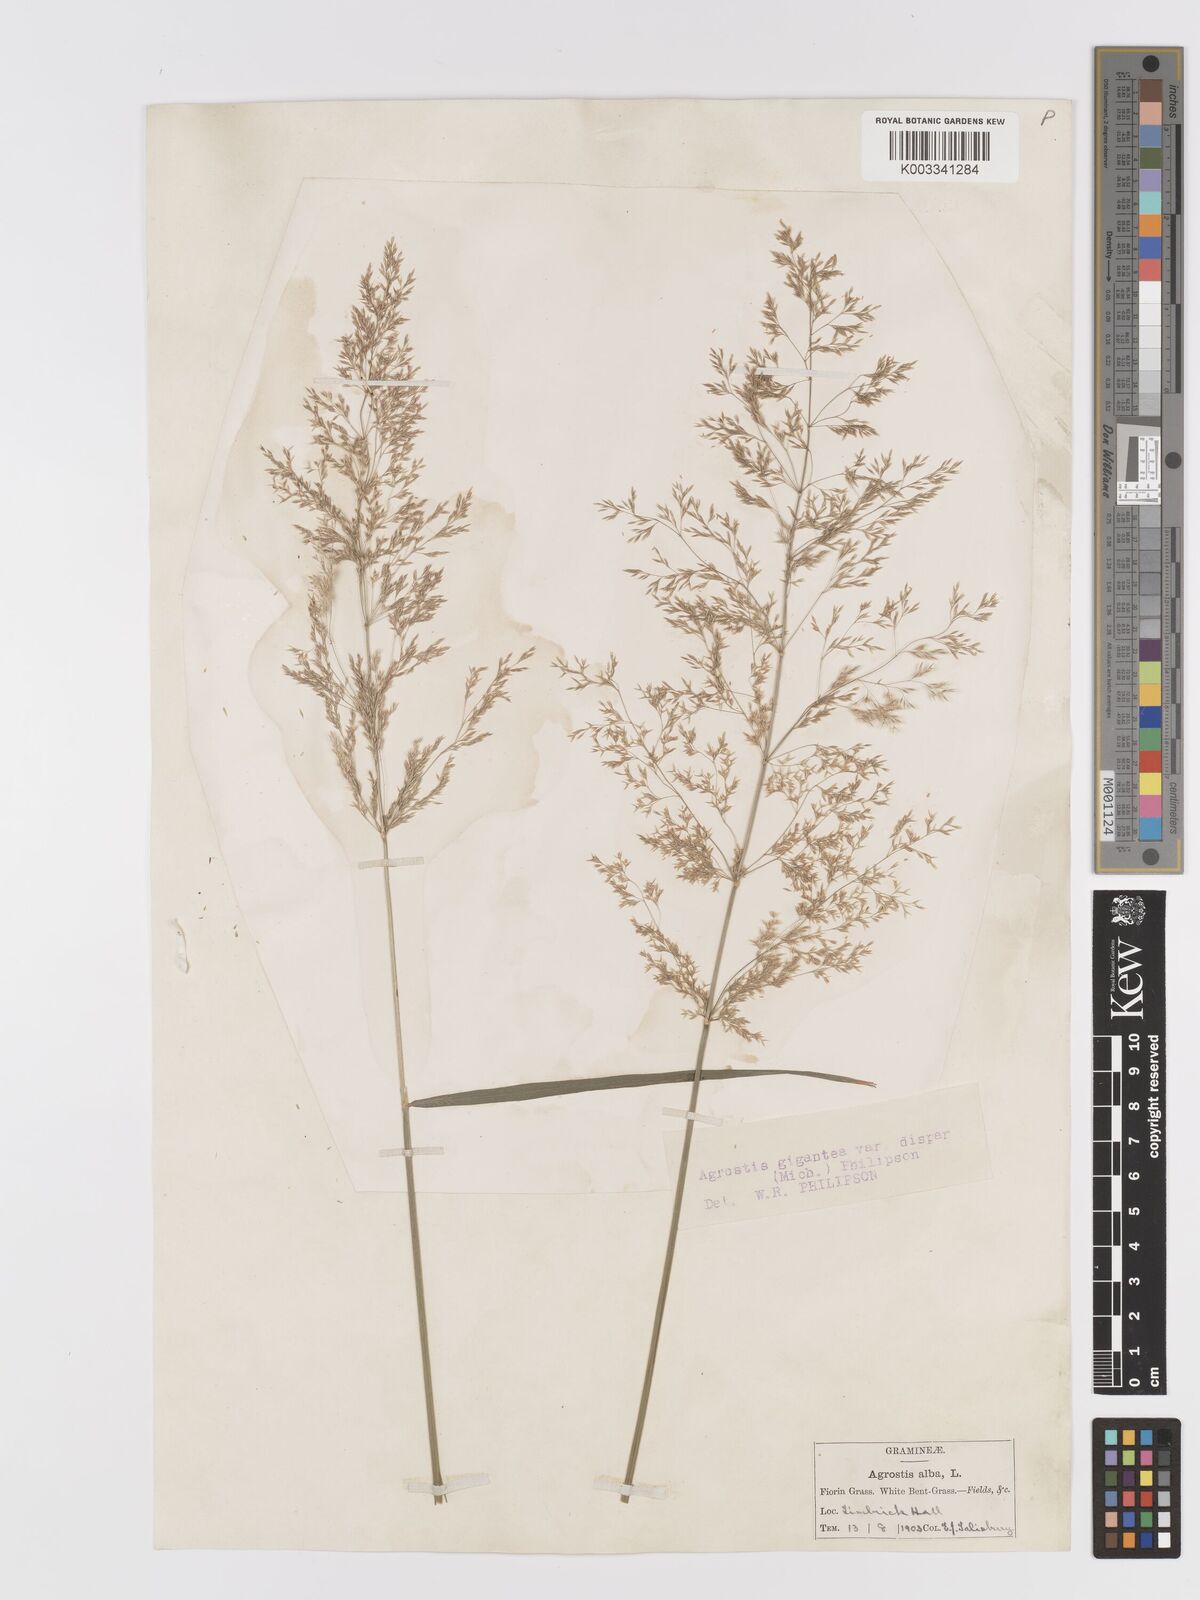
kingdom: Plantae
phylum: Tracheophyta
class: Liliopsida
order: Poales
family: Poaceae
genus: Agrostis
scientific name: Agrostis gigantea
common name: Black bent
